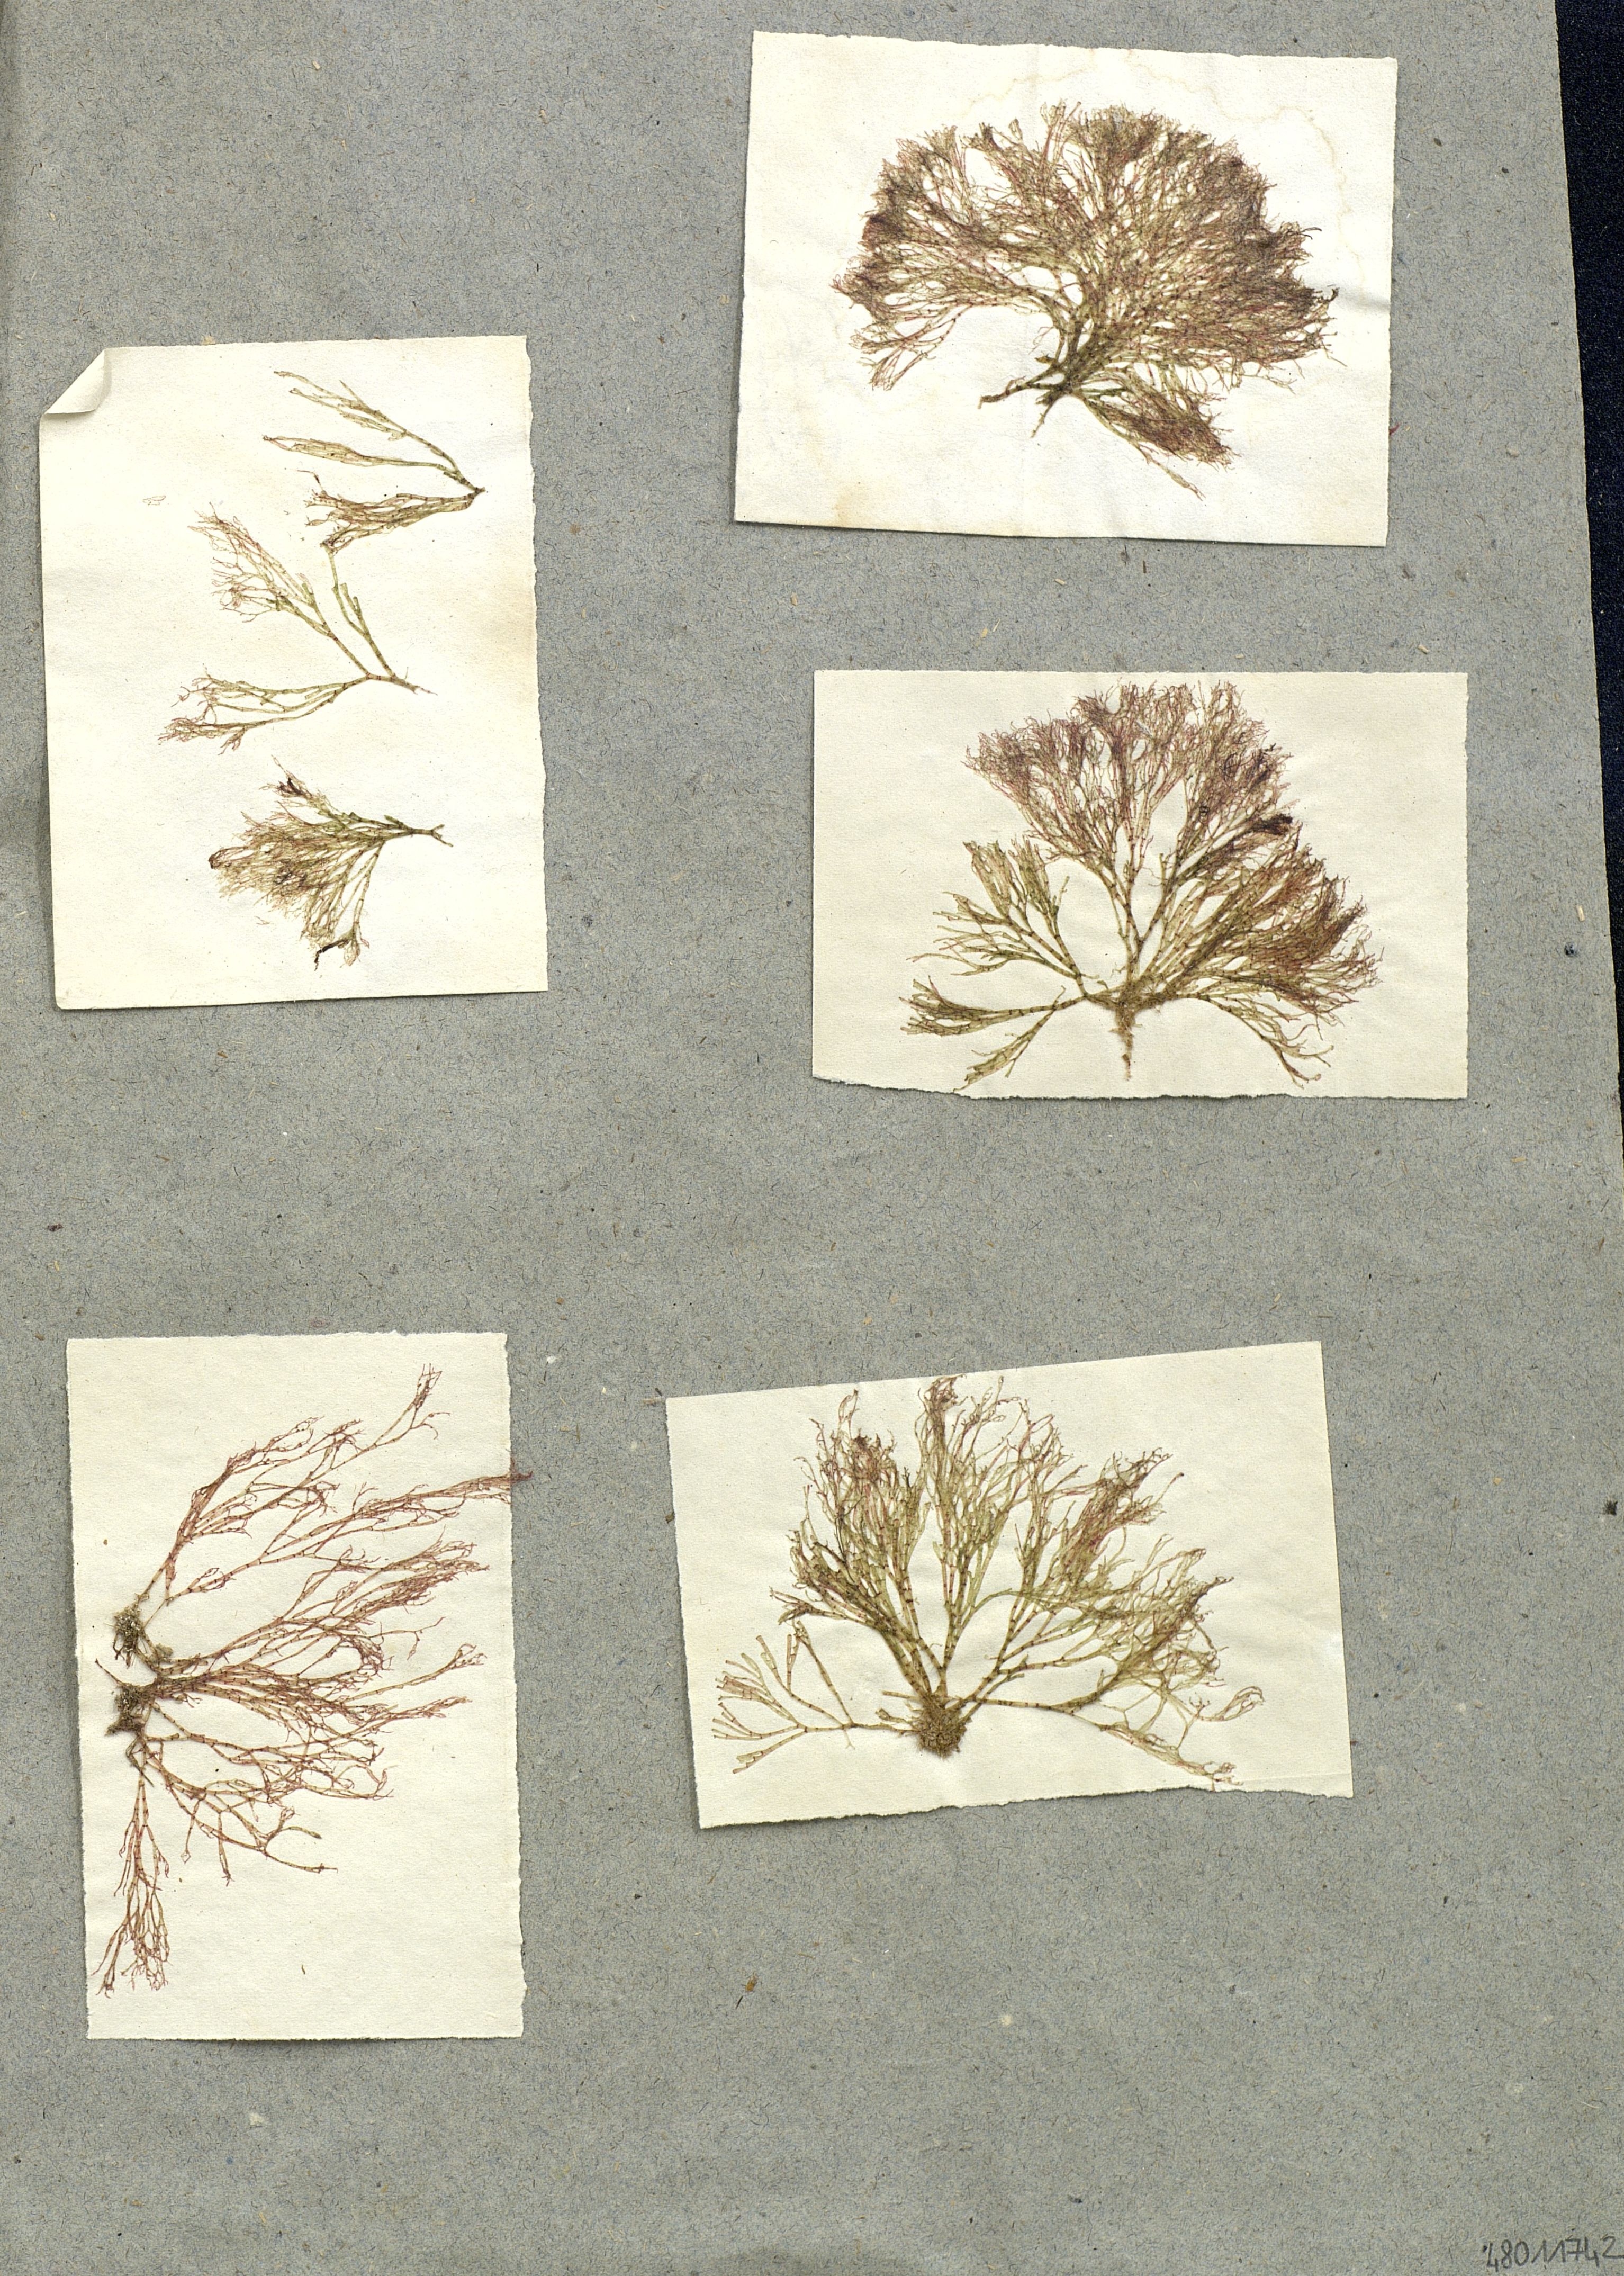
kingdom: Plantae
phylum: Rhodophyta
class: Florideophyceae
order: Ceramiales
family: Wrangeliaceae
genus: Griffithsia
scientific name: Griffithsia
